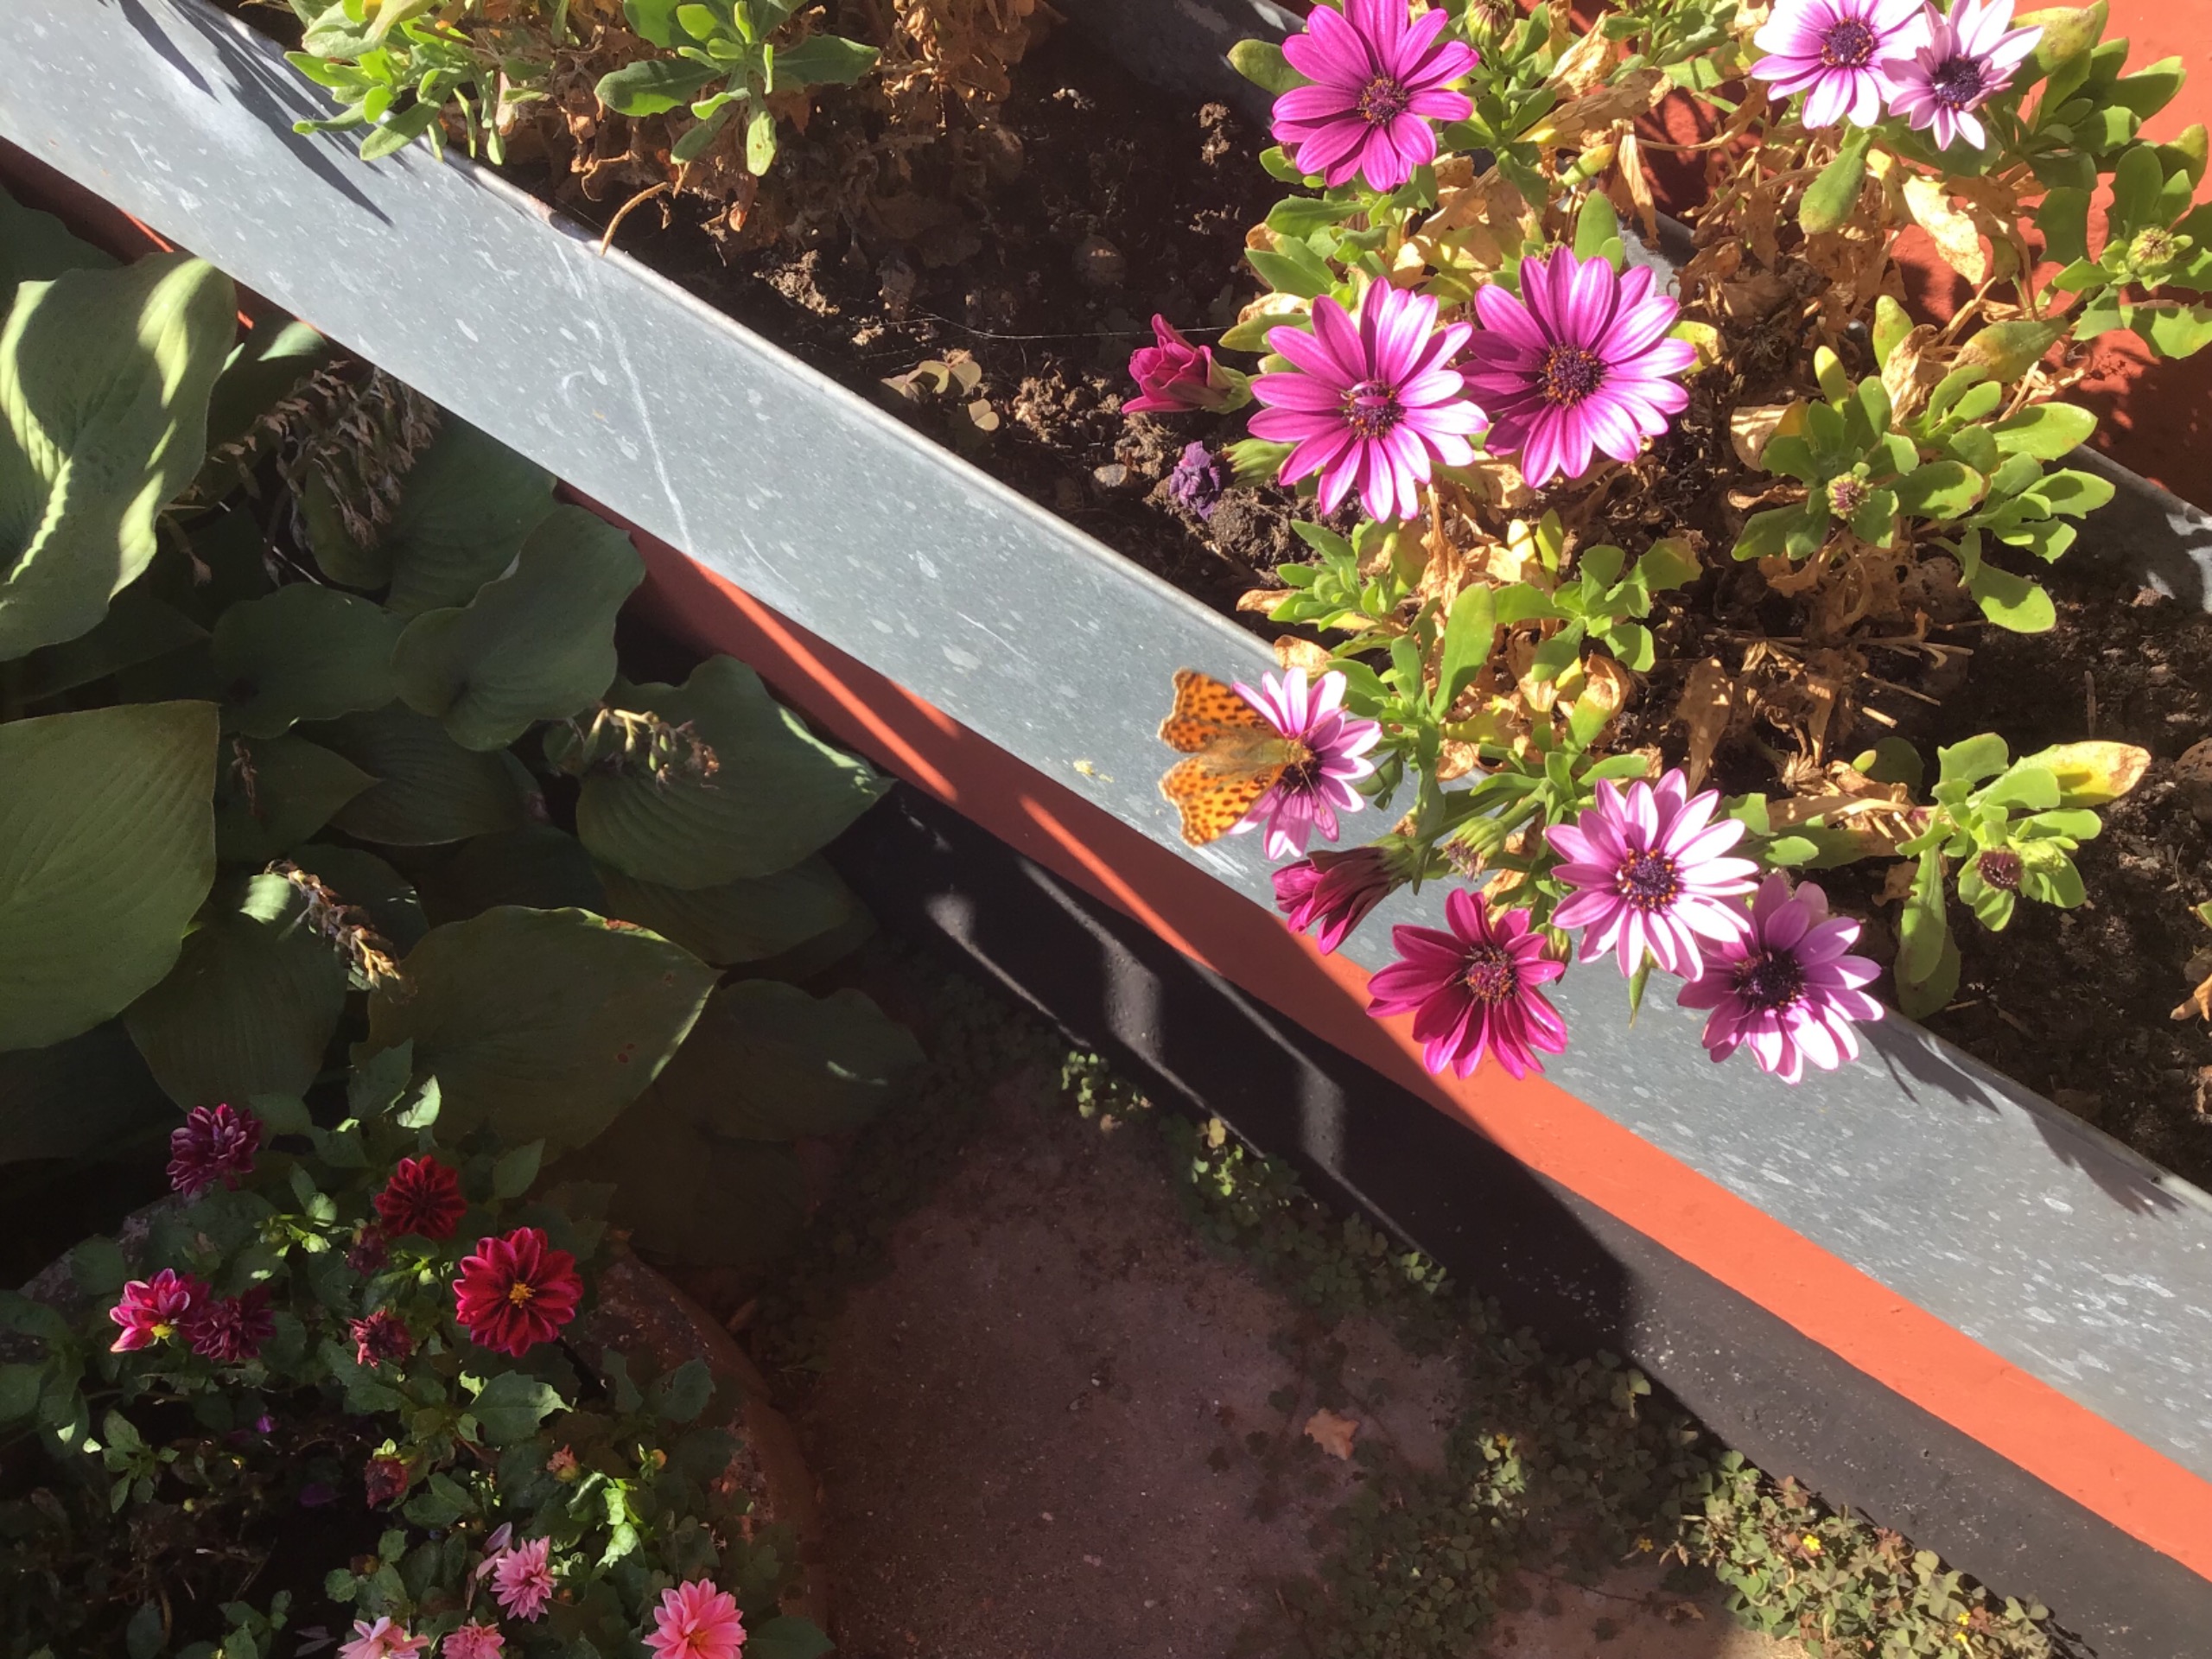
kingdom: Animalia
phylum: Arthropoda
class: Insecta
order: Lepidoptera
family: Nymphalidae
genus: Issoria
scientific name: Issoria lathonia
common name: Storplettet perlemorsommerfugl
